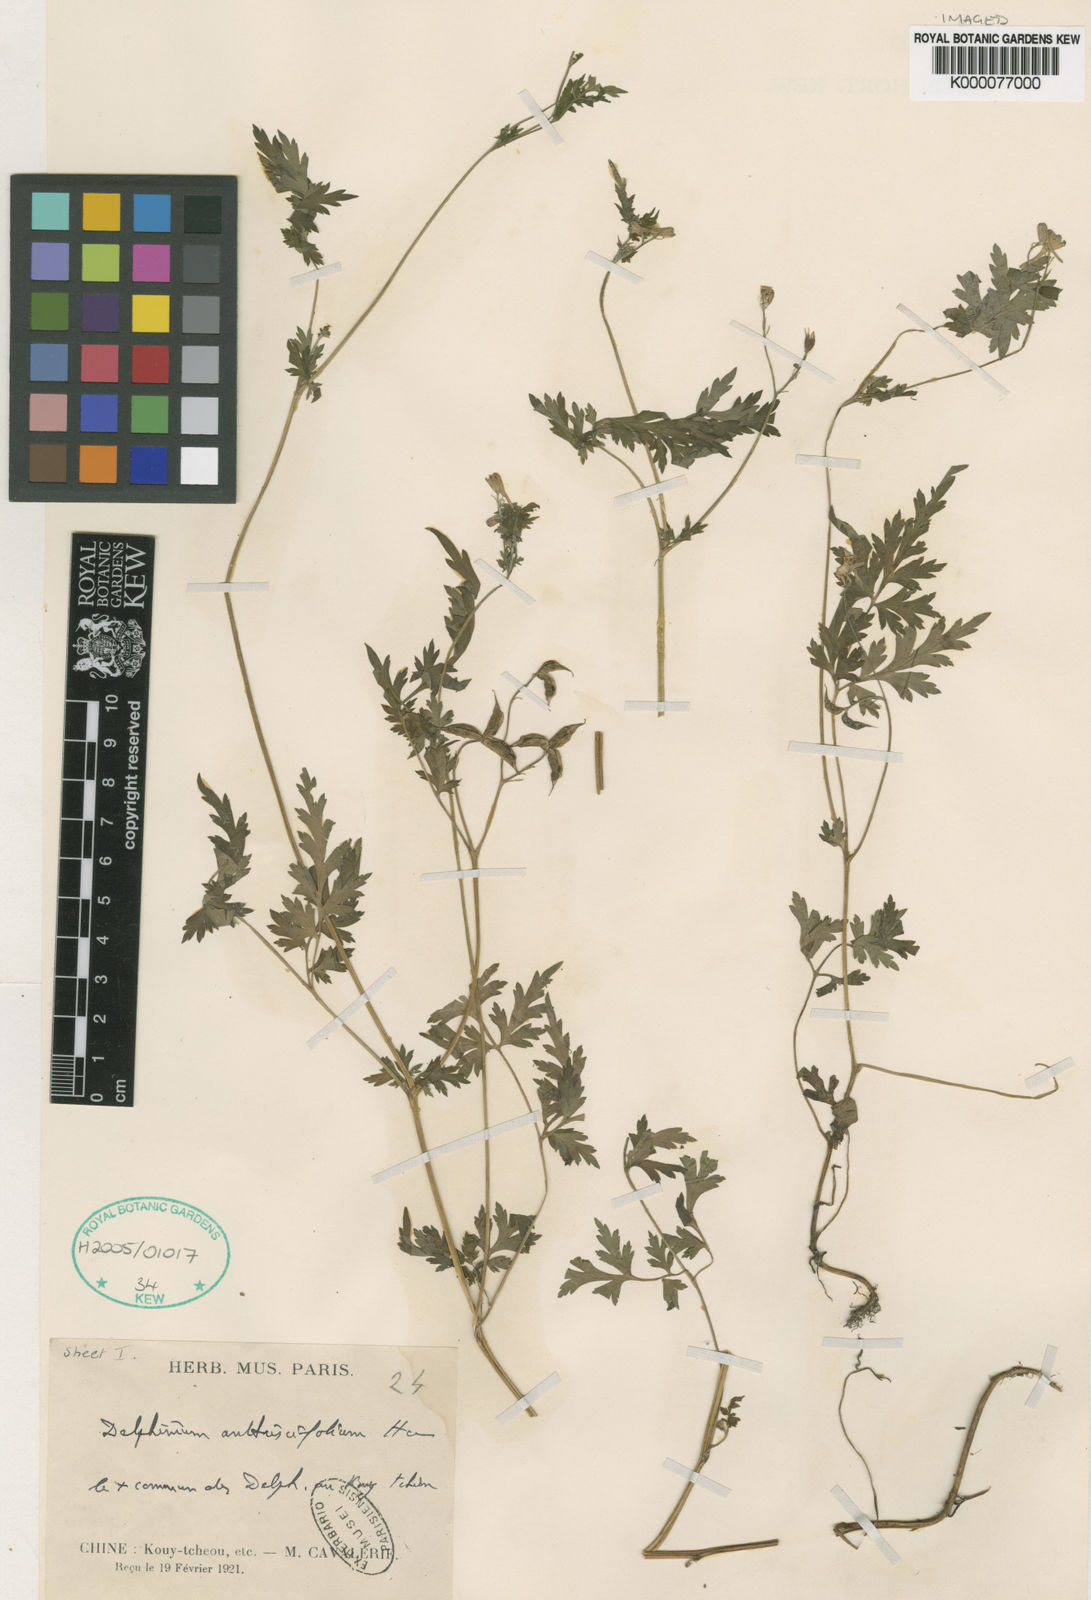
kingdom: Plantae
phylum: Tracheophyta
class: Magnoliopsida
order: Ranunculales
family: Ranunculaceae
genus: Delphinium
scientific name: Delphinium anthriscifolium
